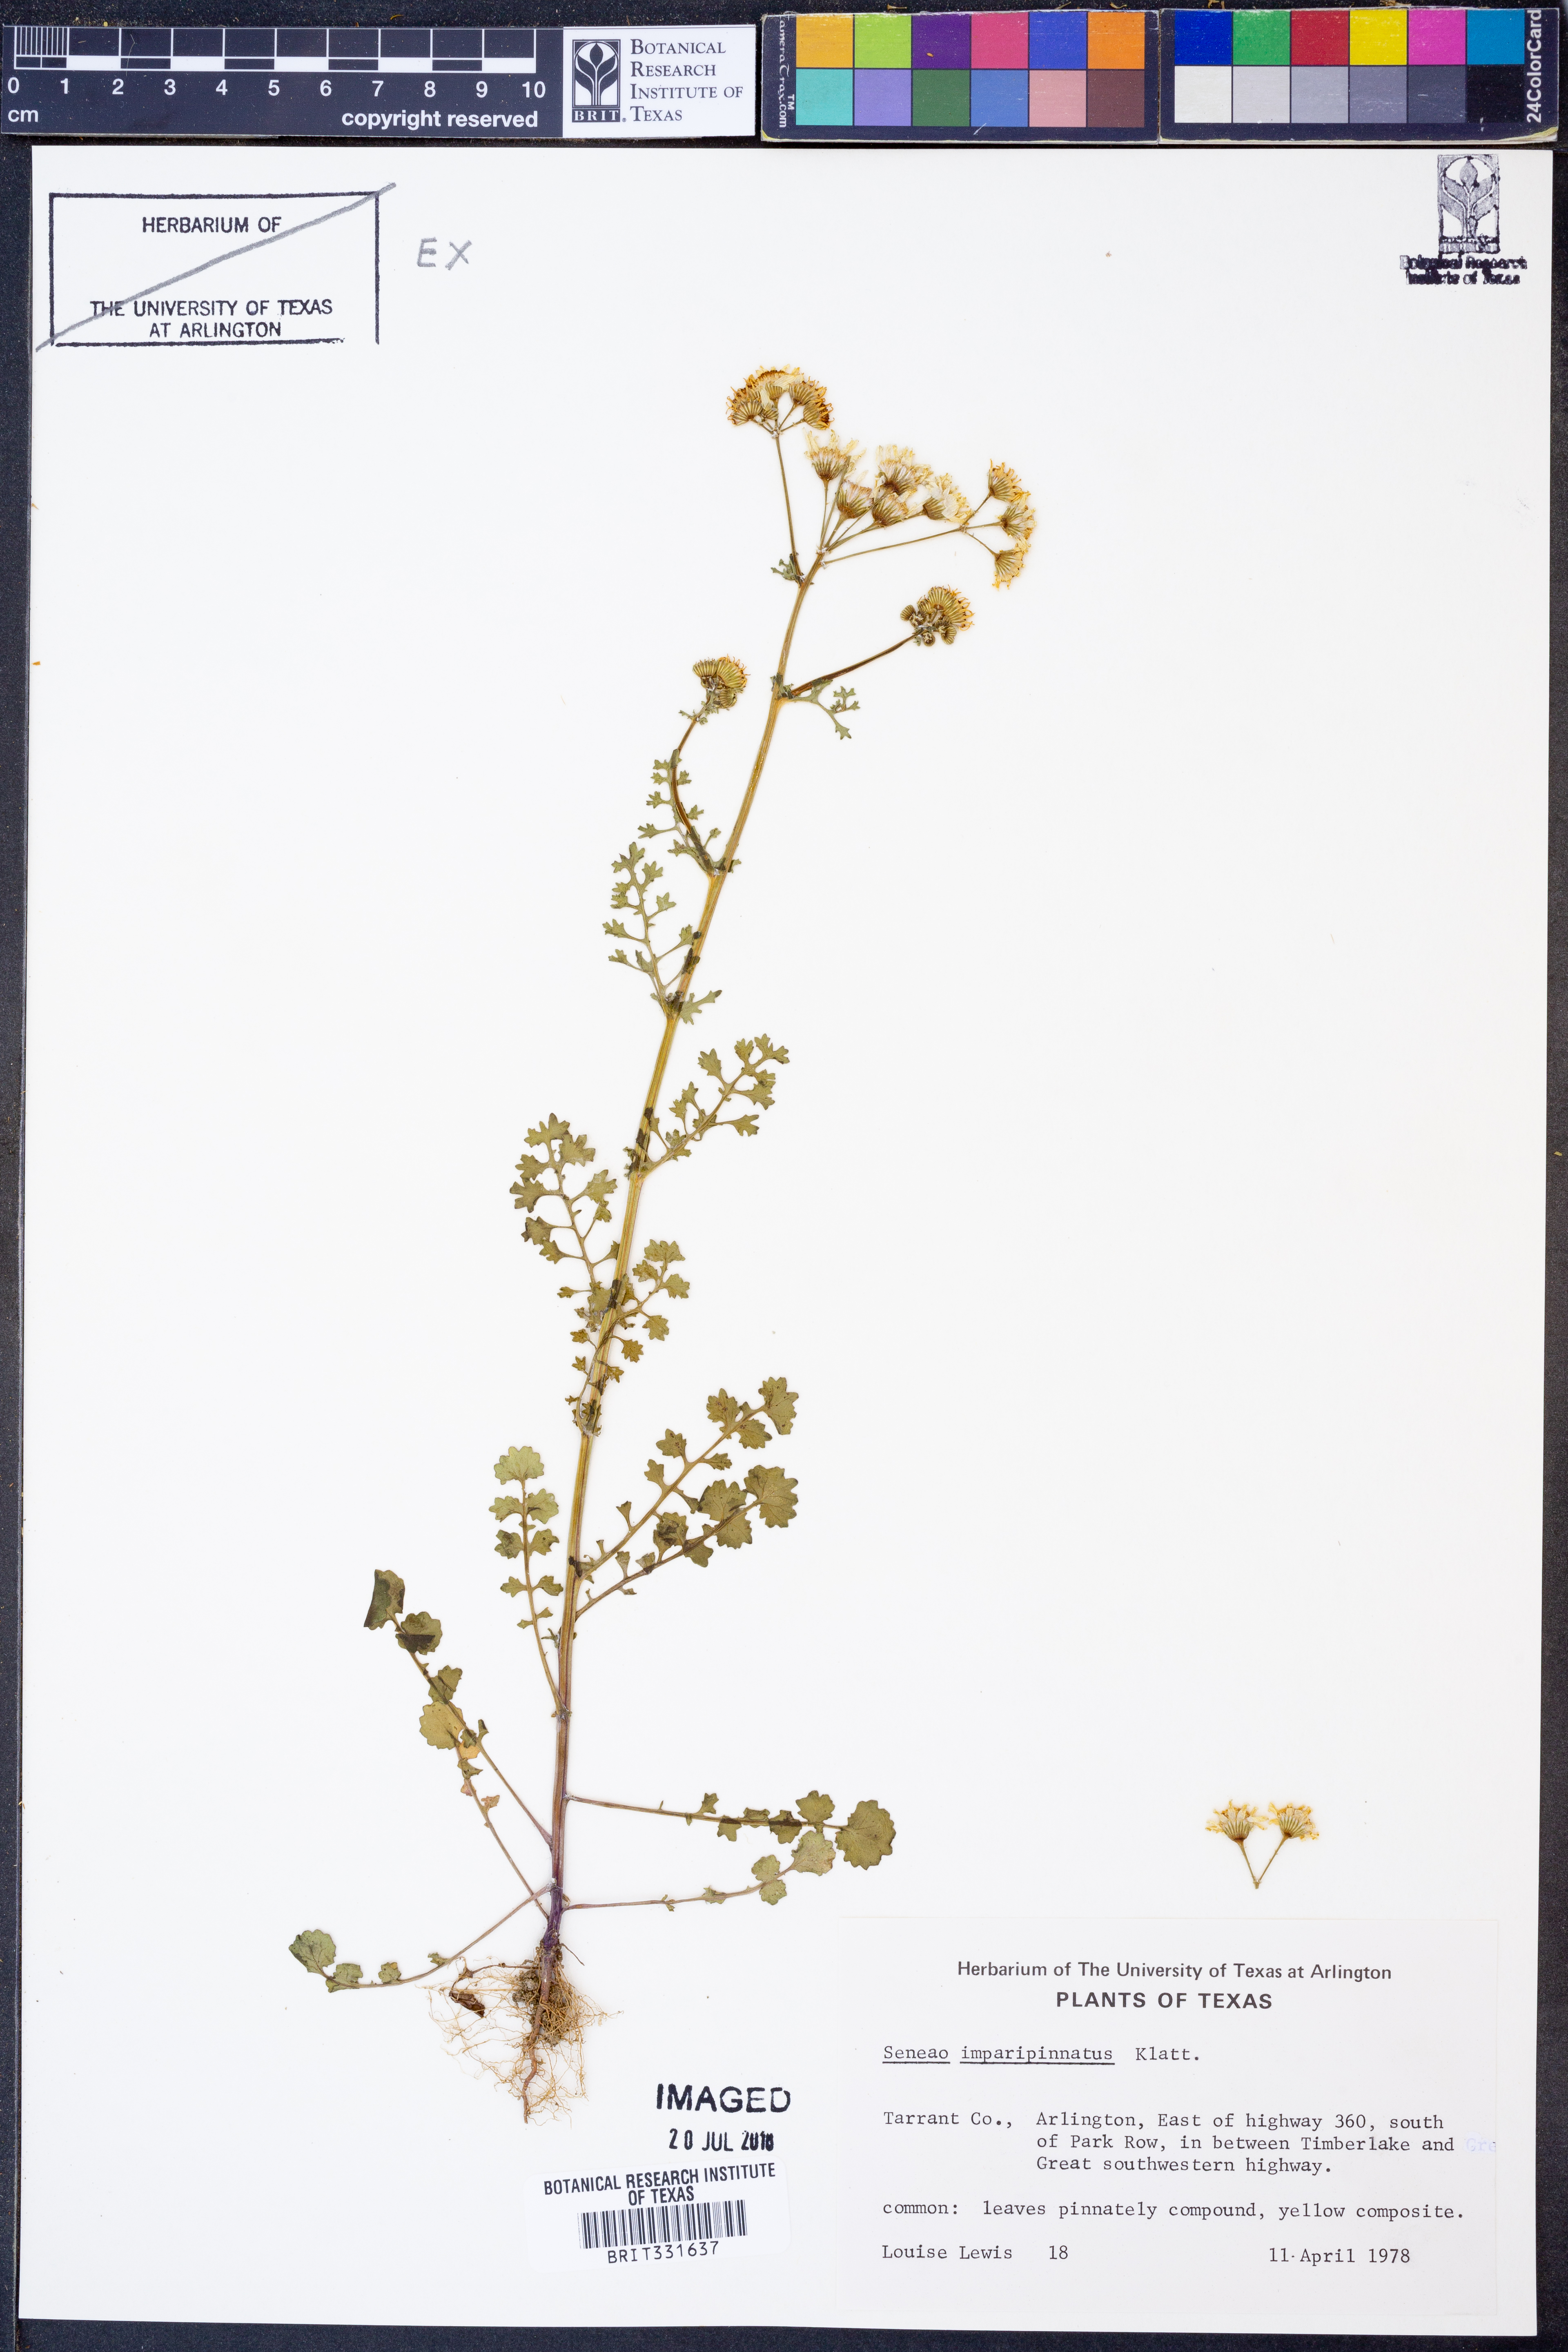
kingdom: Plantae
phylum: Tracheophyta
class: Magnoliopsida
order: Asterales
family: Asteraceae
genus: Packera
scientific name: Packera tampicana
